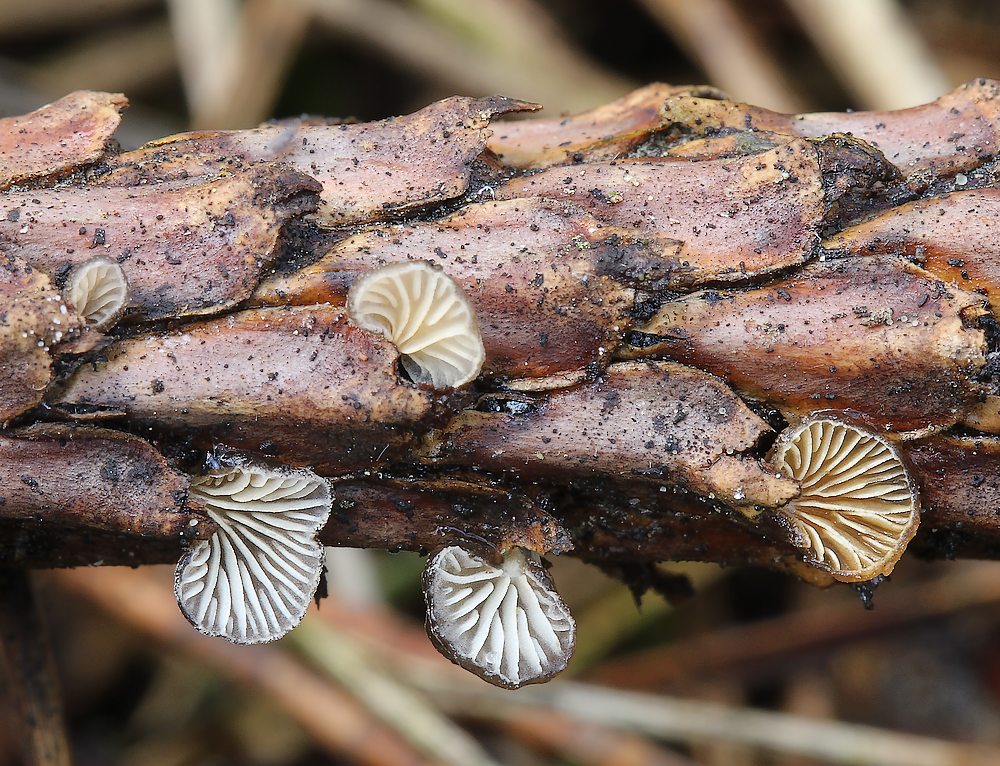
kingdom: Fungi
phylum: Basidiomycota
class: Agaricomycetes
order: Agaricales
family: Pleurotaceae
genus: Hohenbuehelia
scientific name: Hohenbuehelia atrocoerulea
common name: blålig filthat
